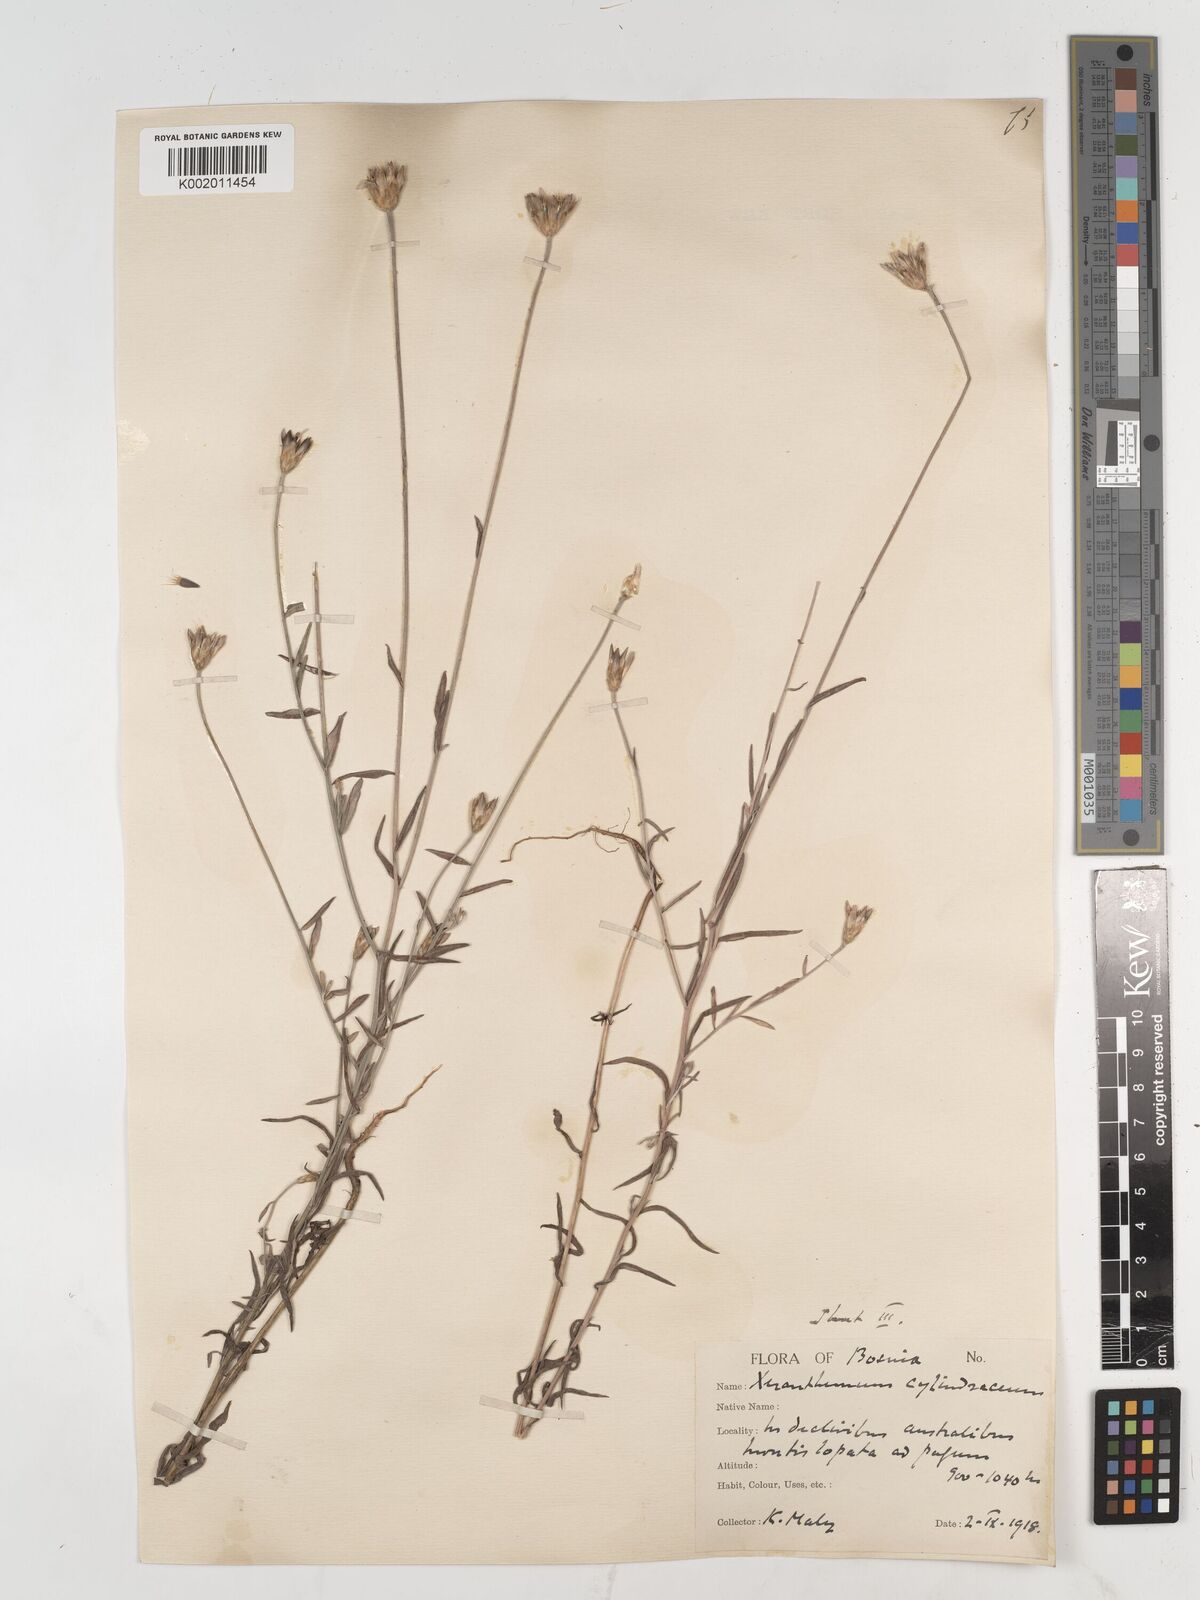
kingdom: Plantae
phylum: Tracheophyta
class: Magnoliopsida
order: Asterales
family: Asteraceae
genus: Xeranthemum
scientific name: Xeranthemum cylindraceum
